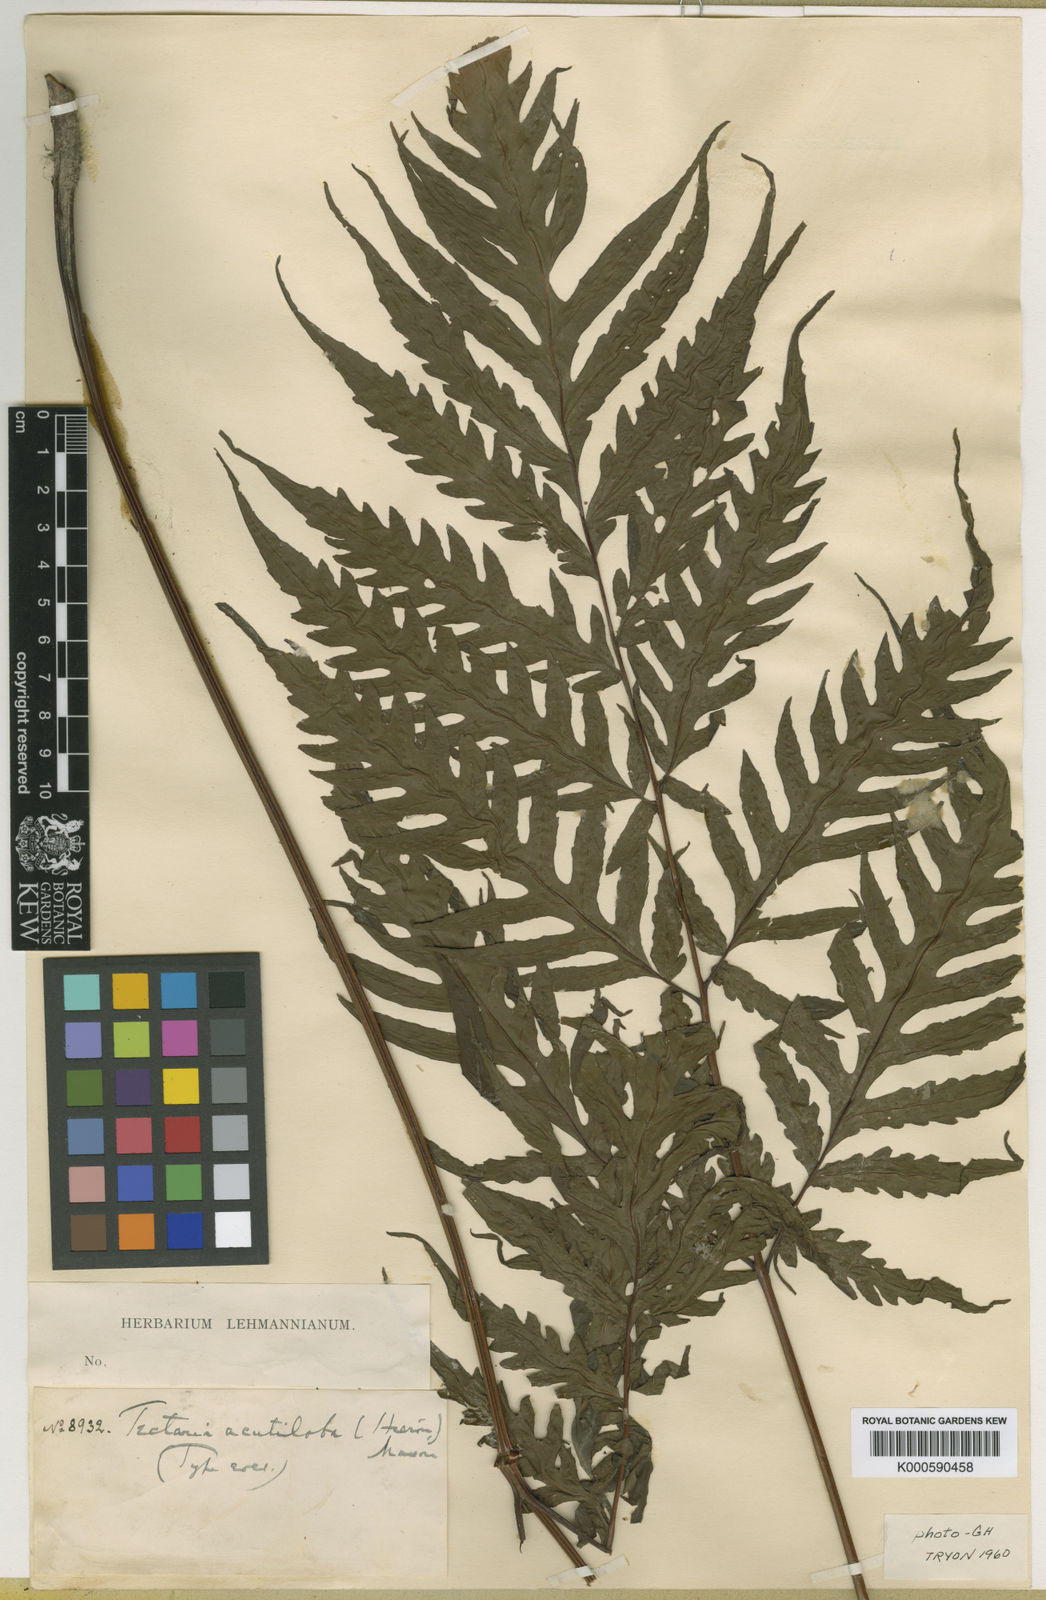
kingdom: Plantae
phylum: Tracheophyta
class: Polypodiopsida
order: Polypodiales
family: Tectariaceae
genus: Tectaria
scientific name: Tectaria mexicana
